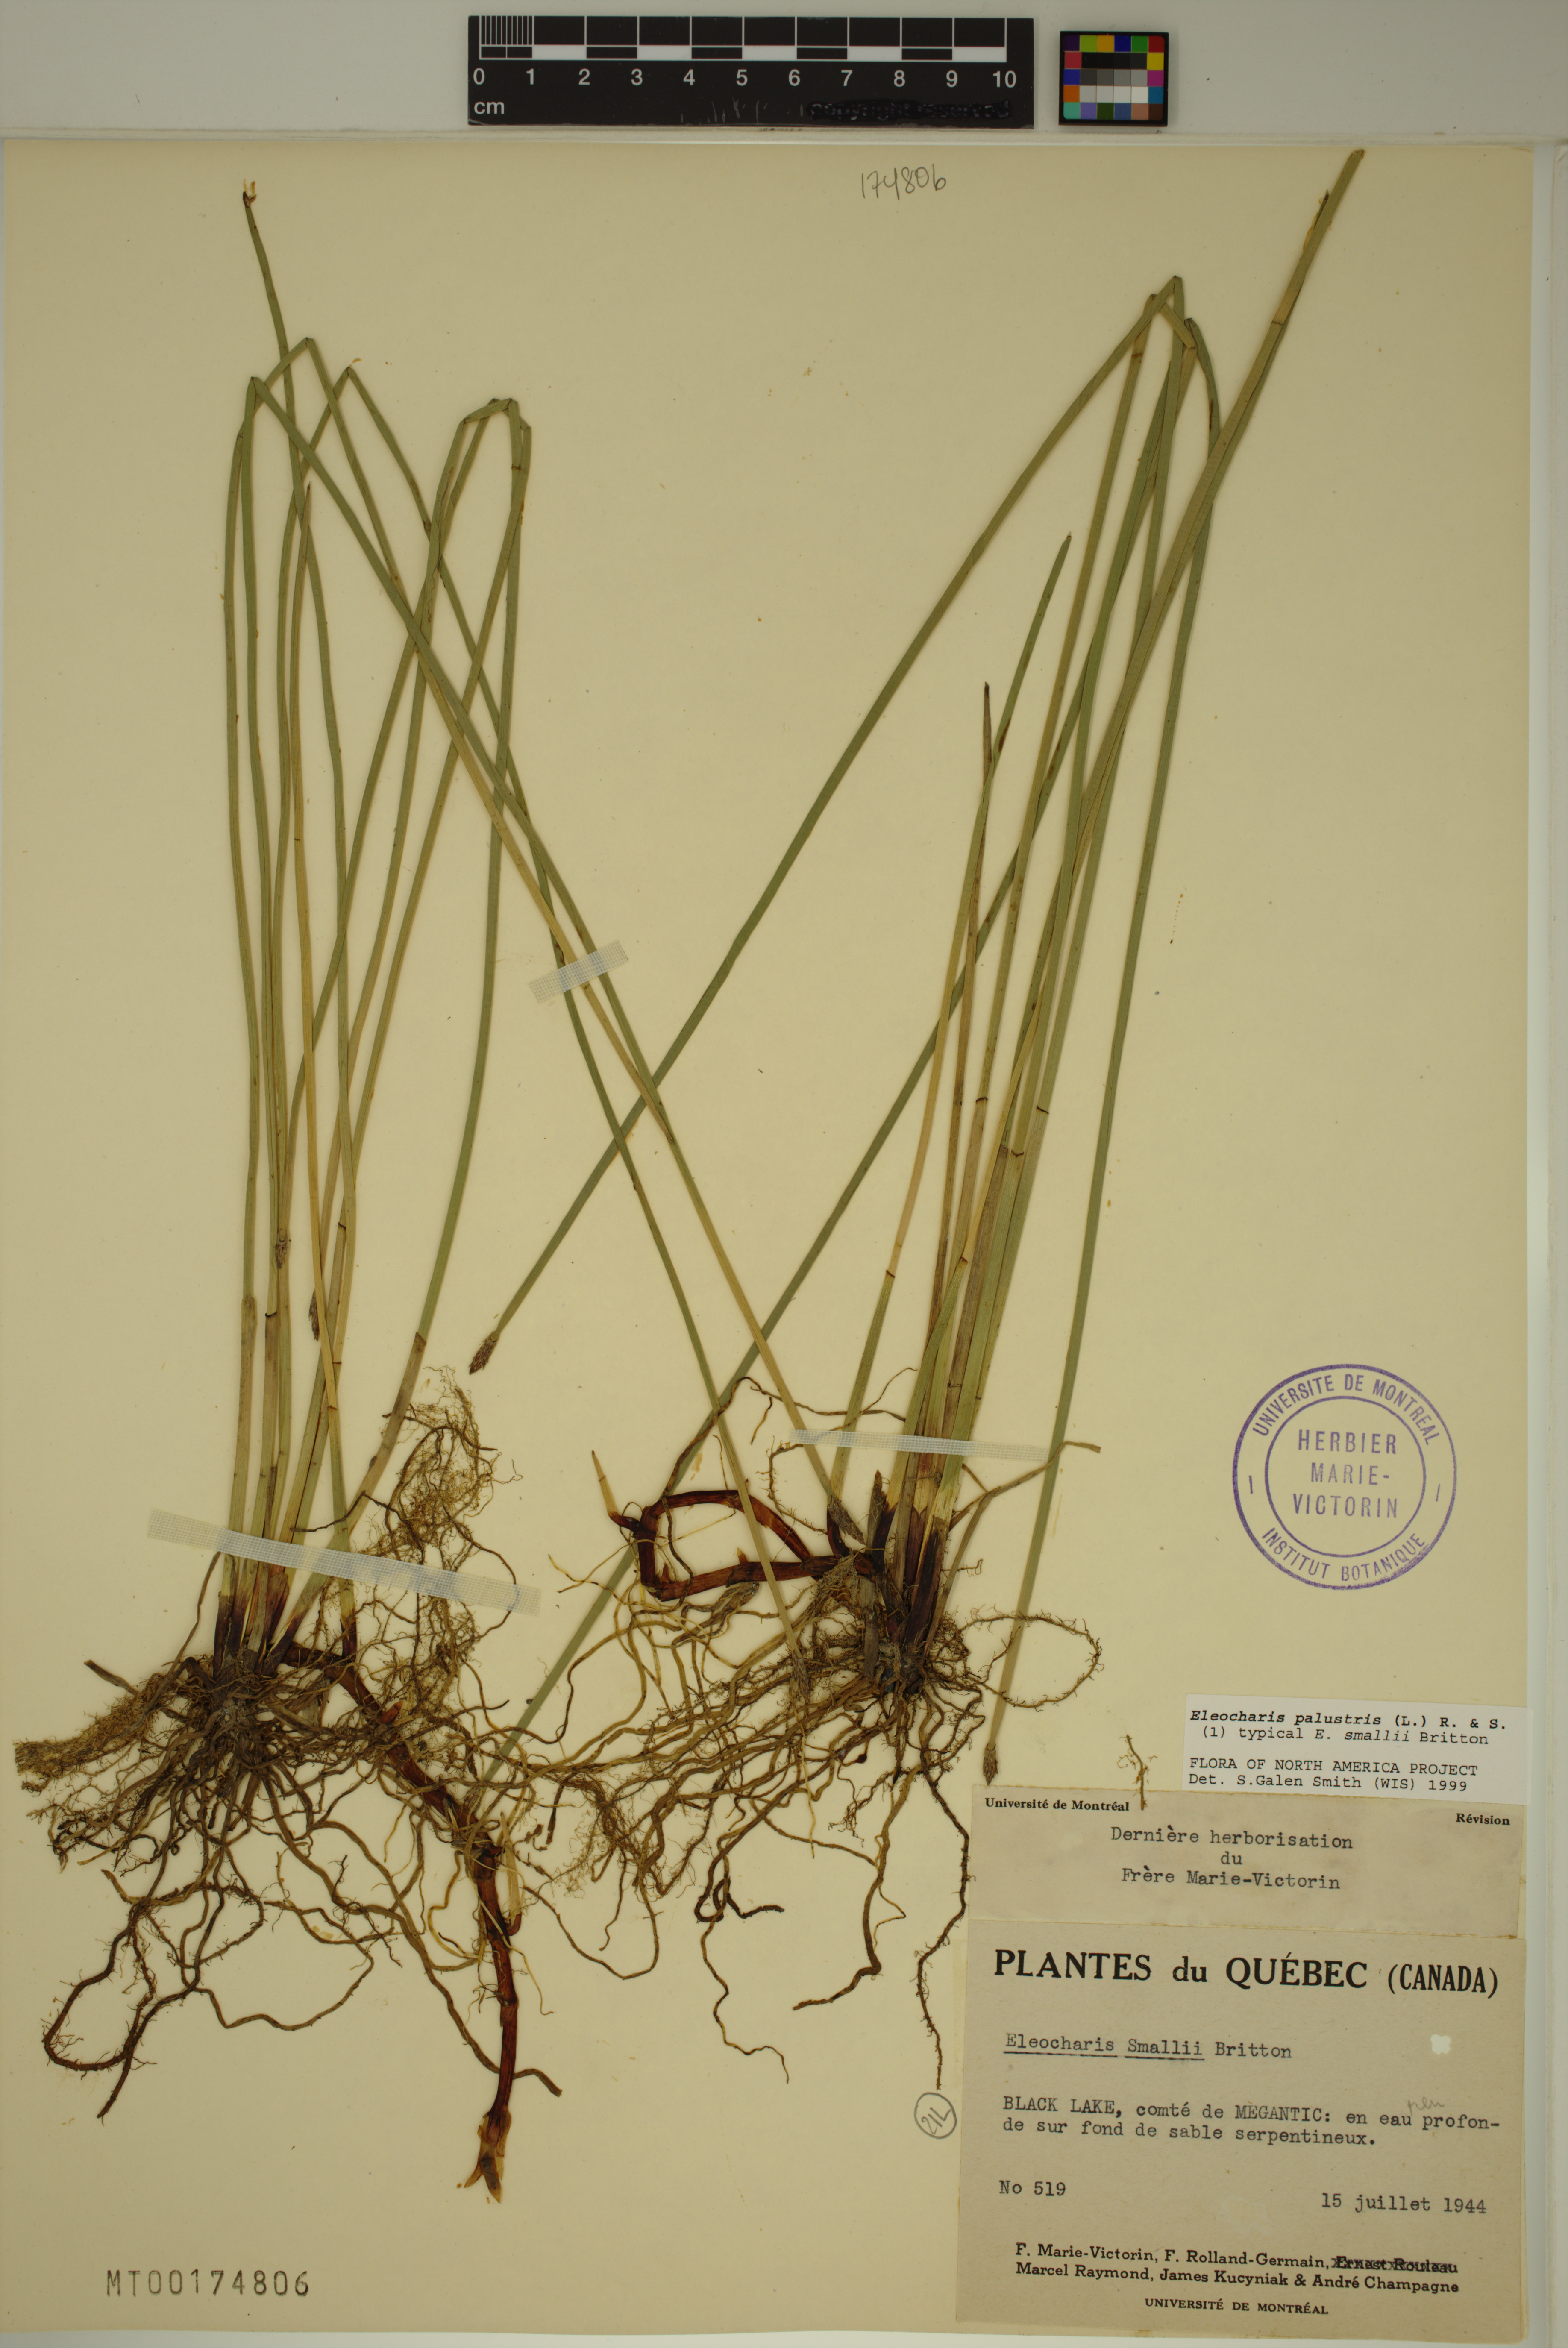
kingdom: Plantae
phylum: Tracheophyta
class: Liliopsida
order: Poales
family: Cyperaceae
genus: Eleocharis
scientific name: Eleocharis palustris
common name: Common spike-rush
